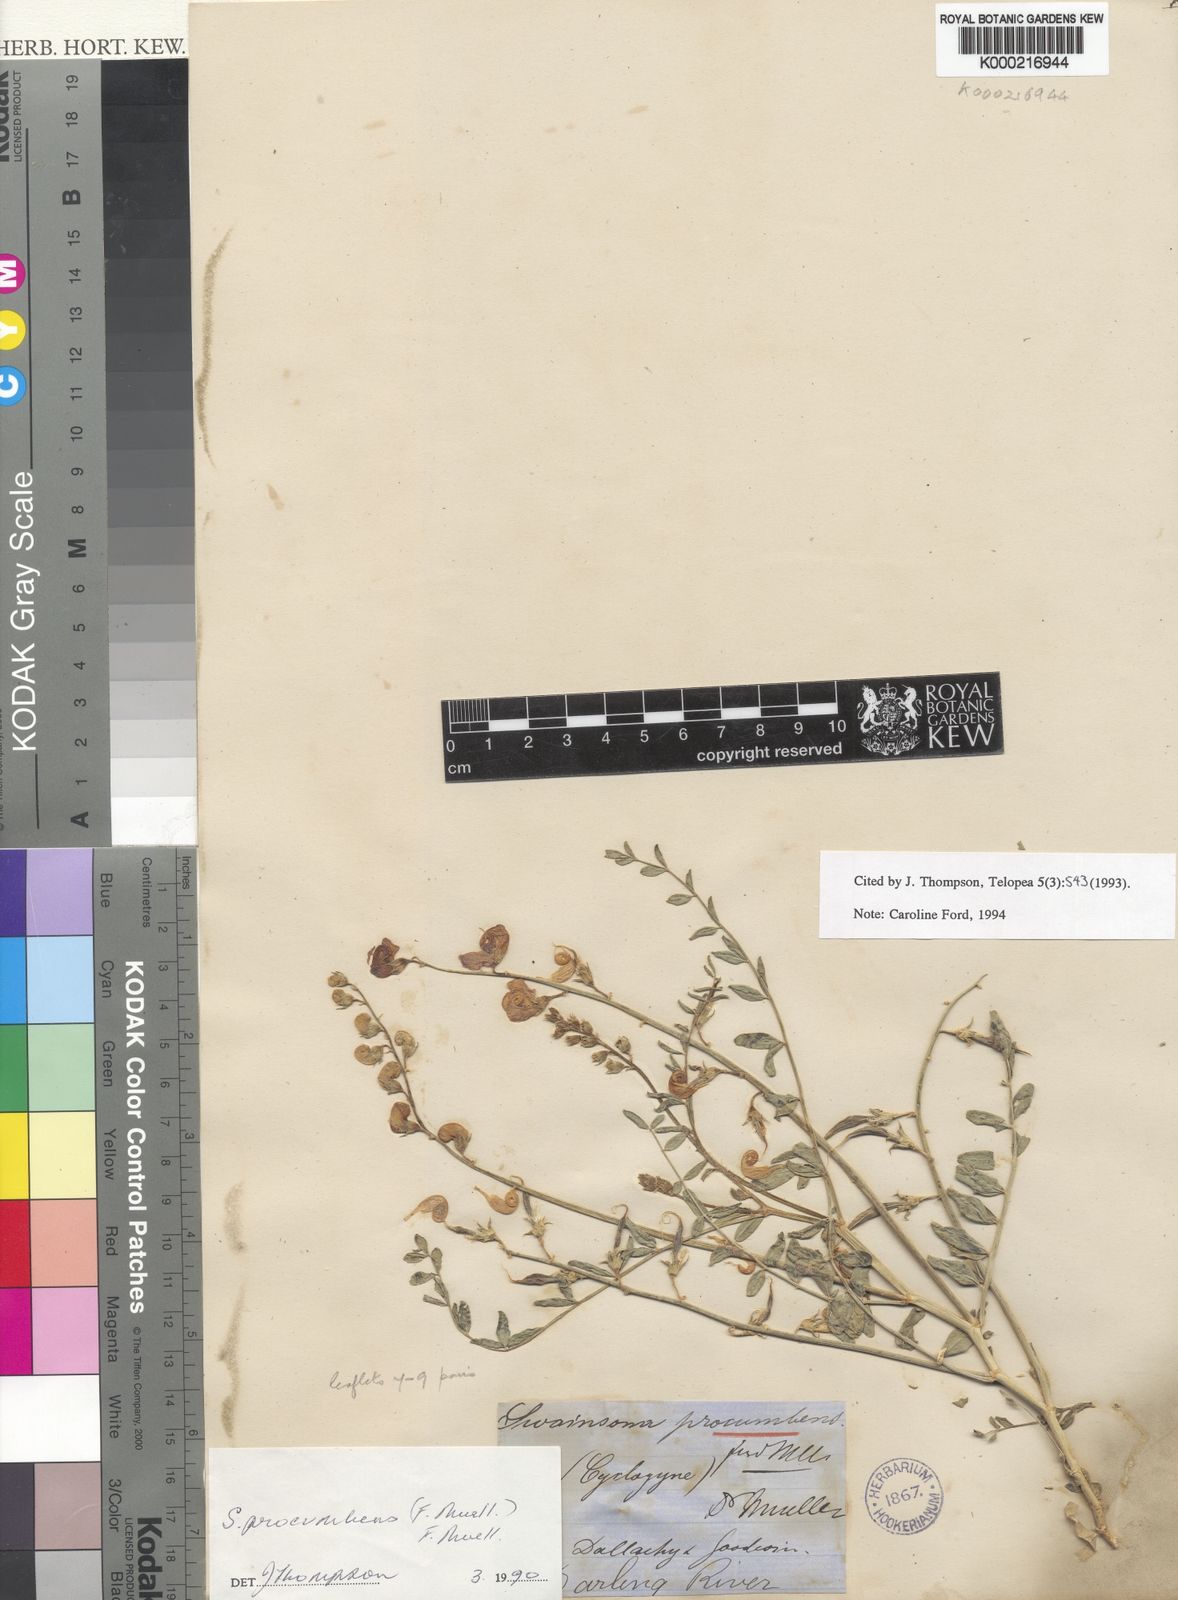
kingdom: Plantae
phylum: Tracheophyta
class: Magnoliopsida
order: Fabales
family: Fabaceae
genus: Swainsona
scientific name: Swainsona procumbens
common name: Broughton-pea
